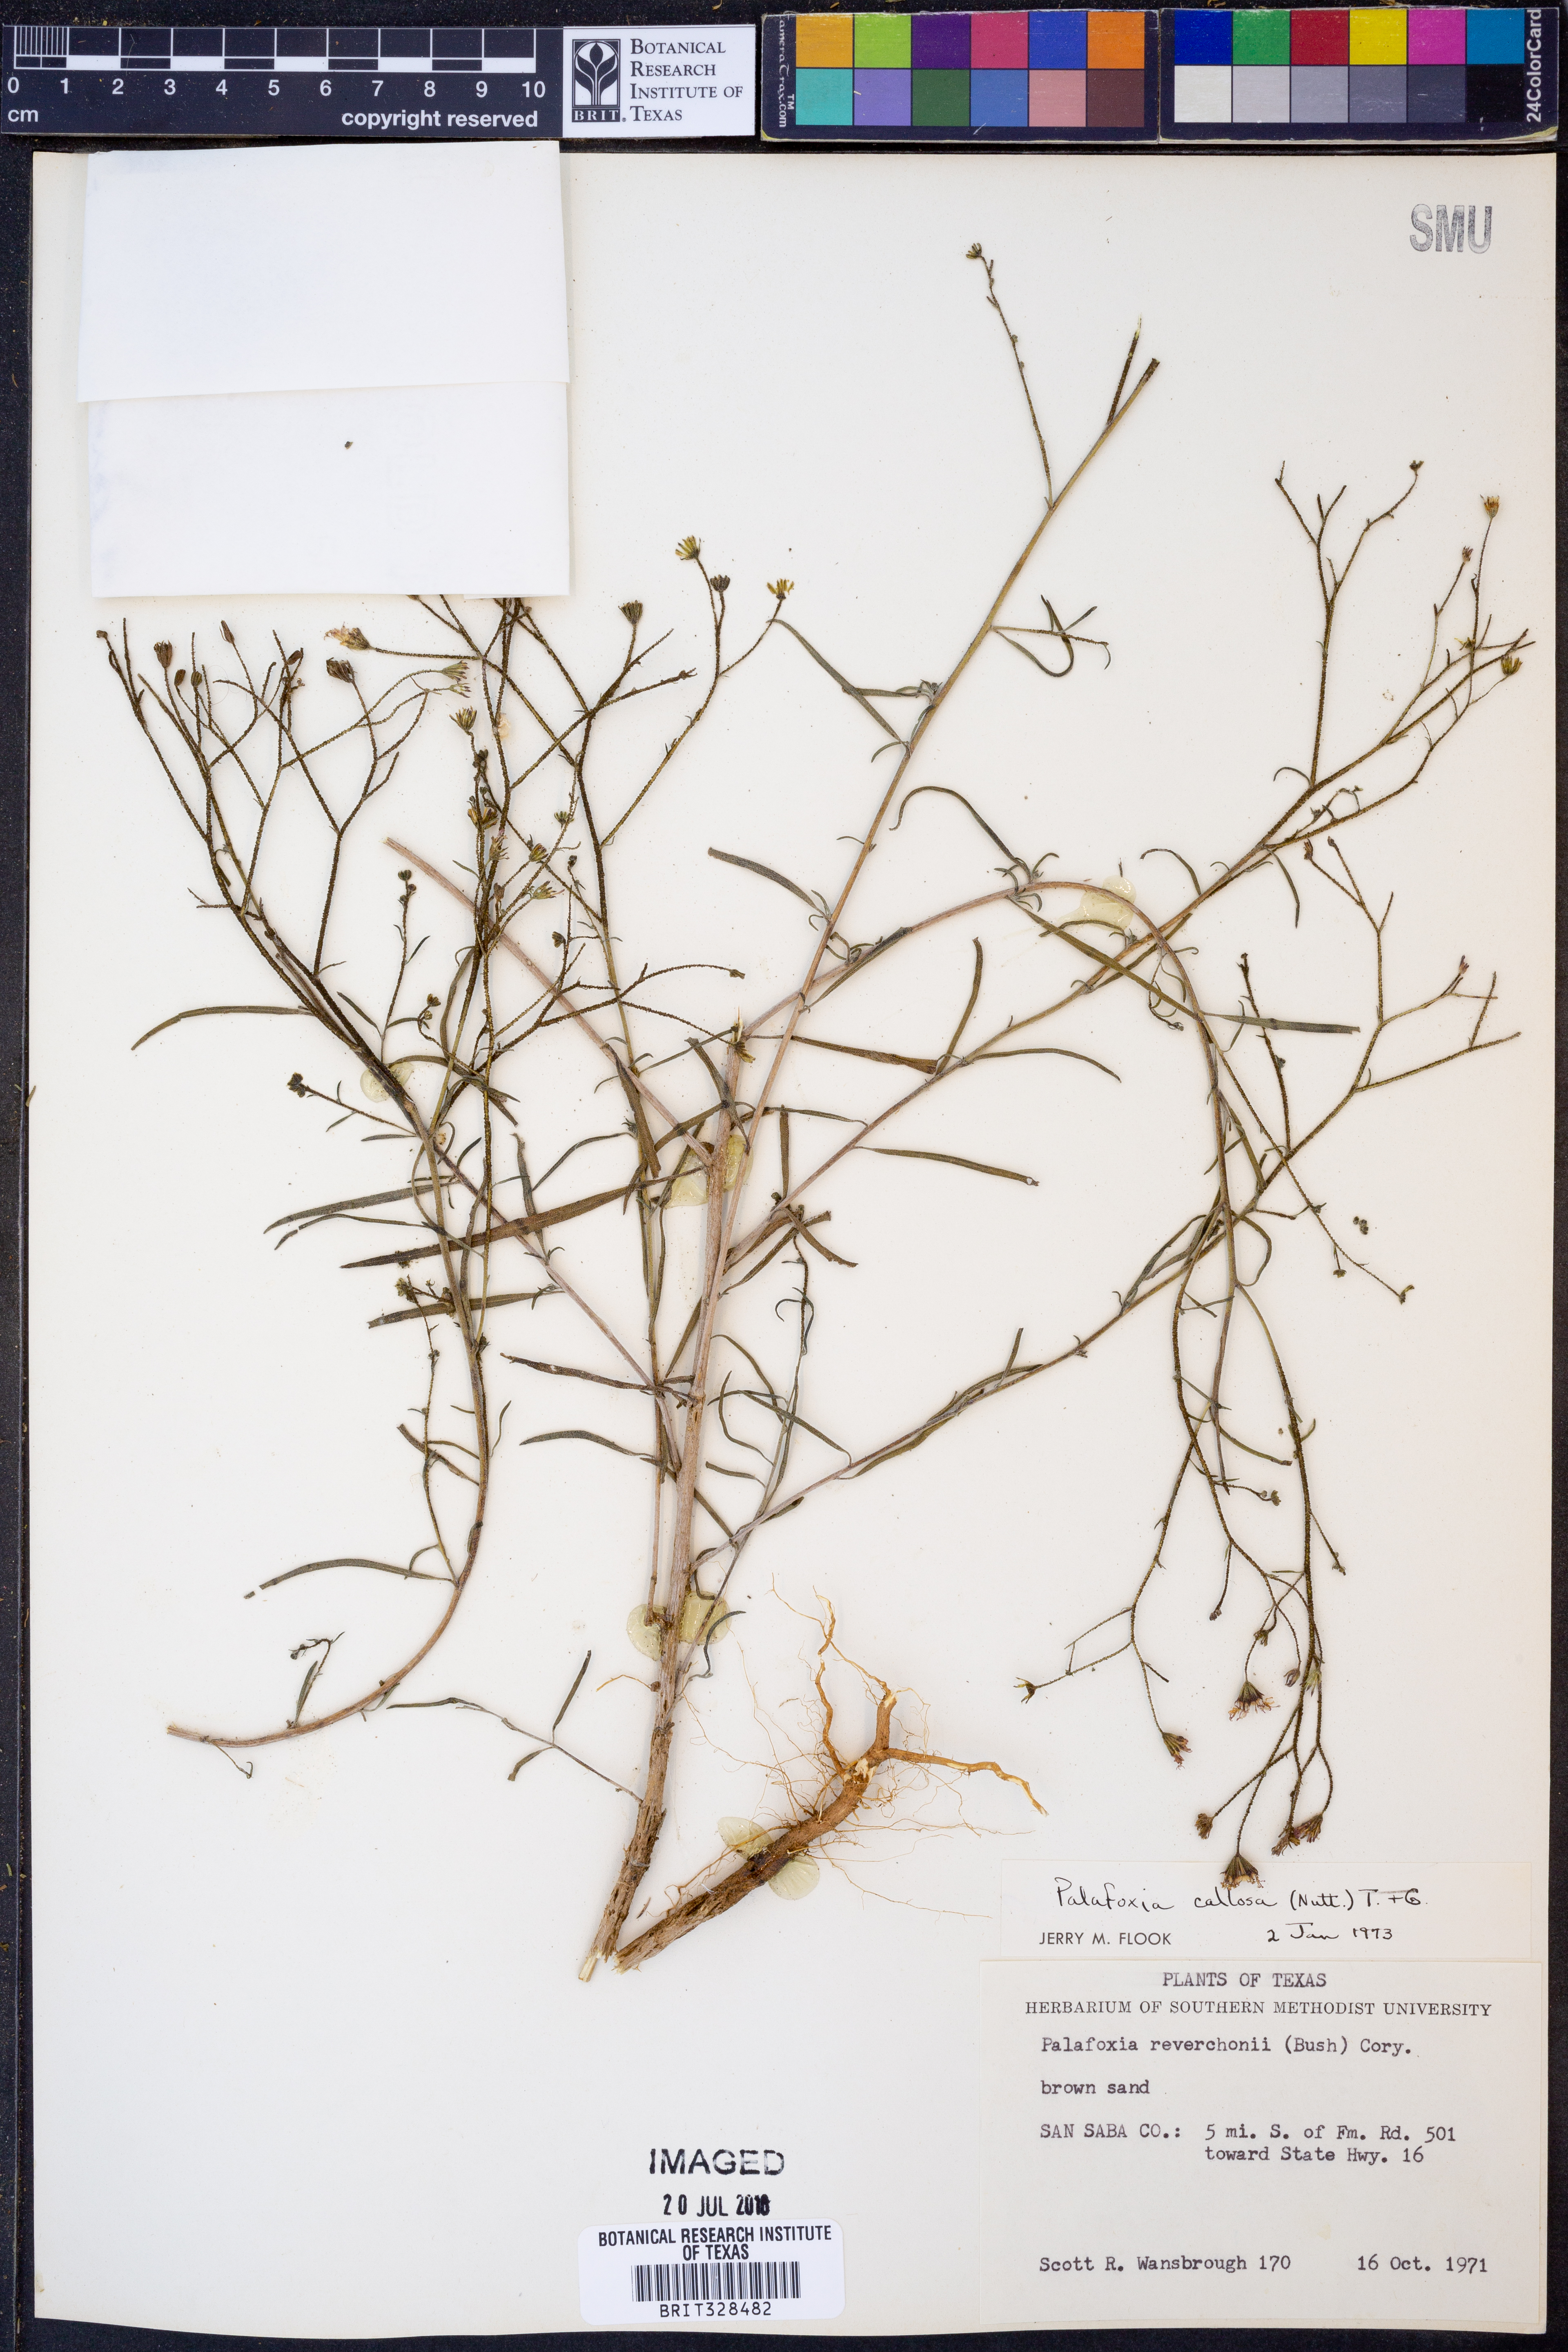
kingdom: Plantae
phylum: Tracheophyta
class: Magnoliopsida
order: Asterales
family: Asteraceae
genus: Palafoxia
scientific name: Palafoxia callosa
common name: Small palafox
